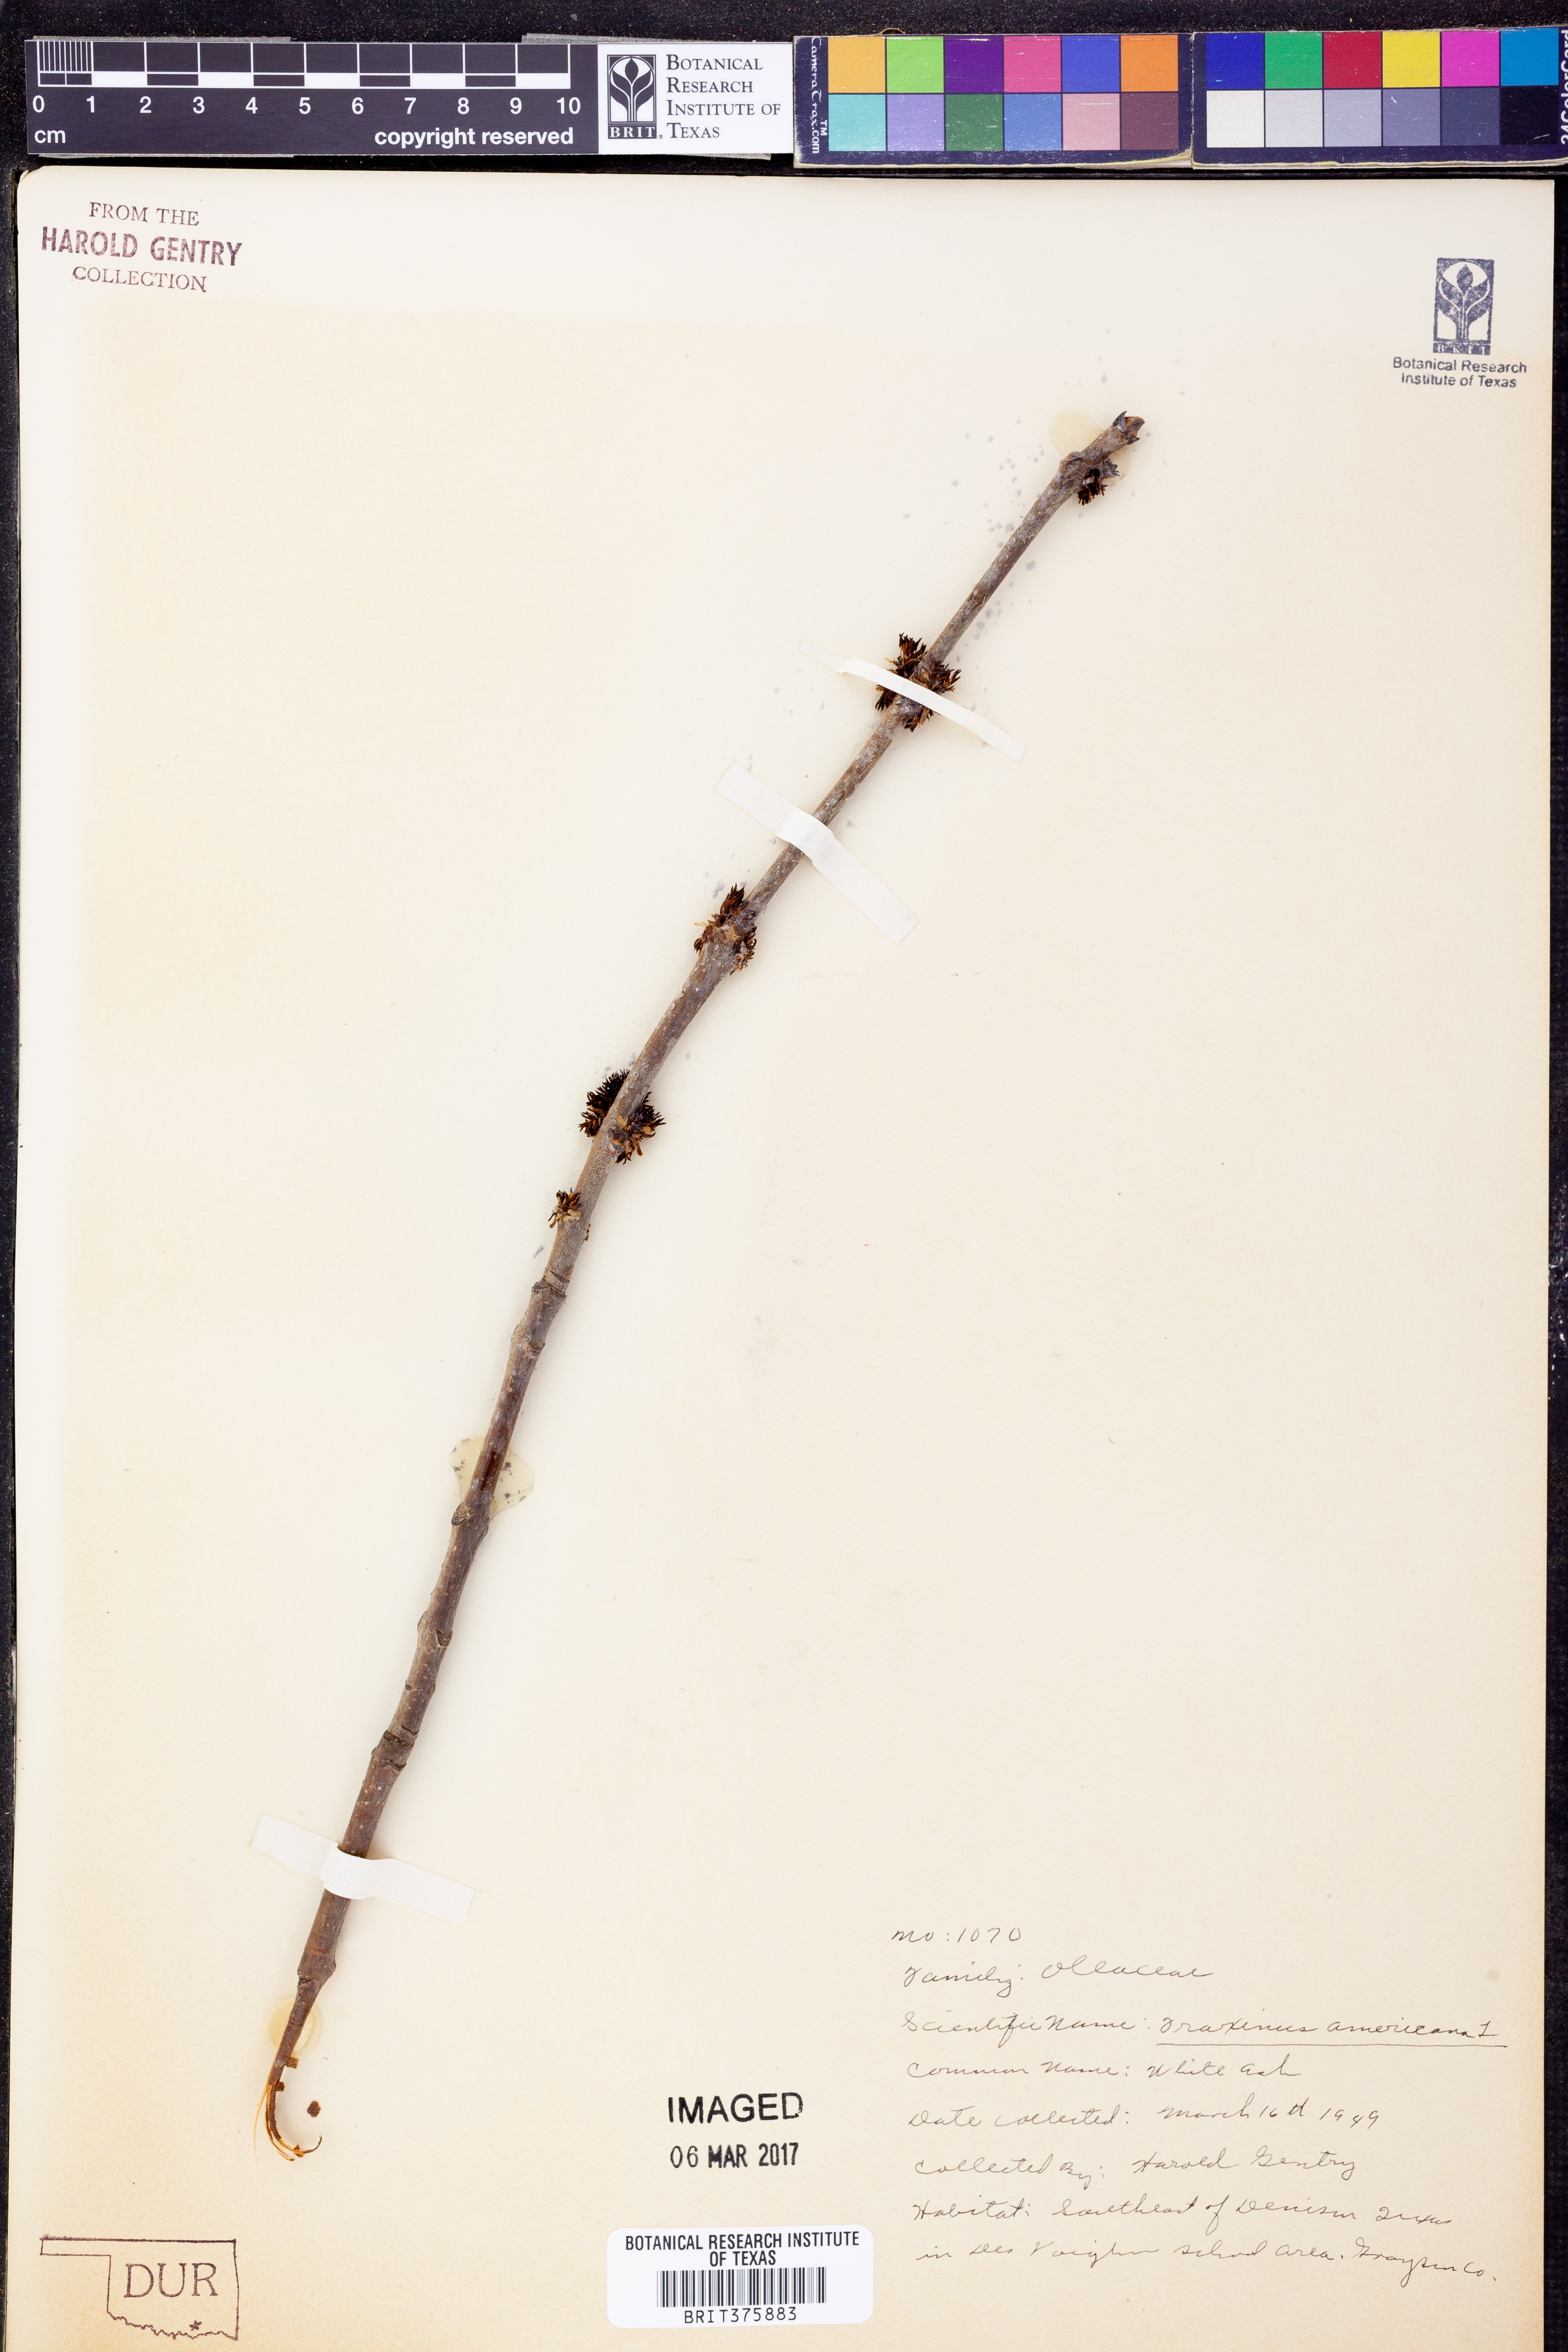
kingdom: Plantae
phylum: Tracheophyta
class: Magnoliopsida
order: Lamiales
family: Oleaceae
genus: Fraxinus
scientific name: Fraxinus americana
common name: White ash
